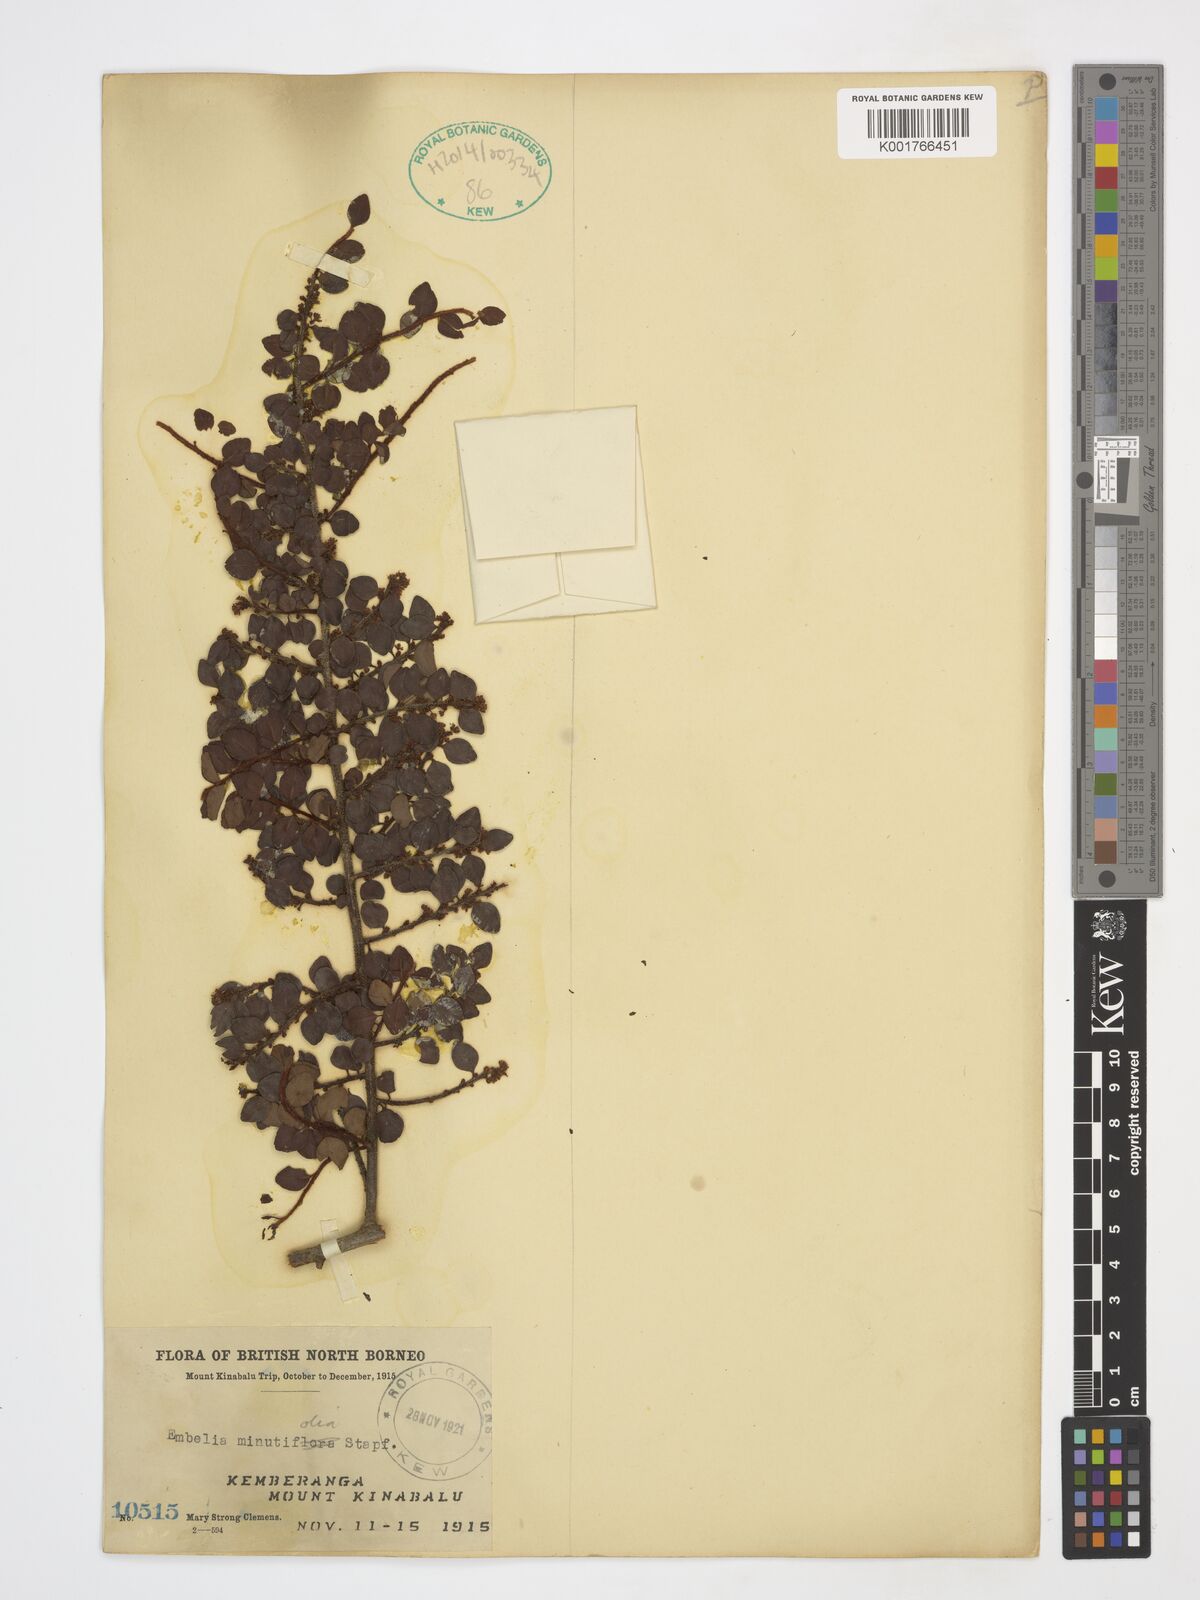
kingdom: Plantae
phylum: Tracheophyta
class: Magnoliopsida
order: Ericales
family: Primulaceae
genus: Embelia
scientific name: Embelia minutifolia
